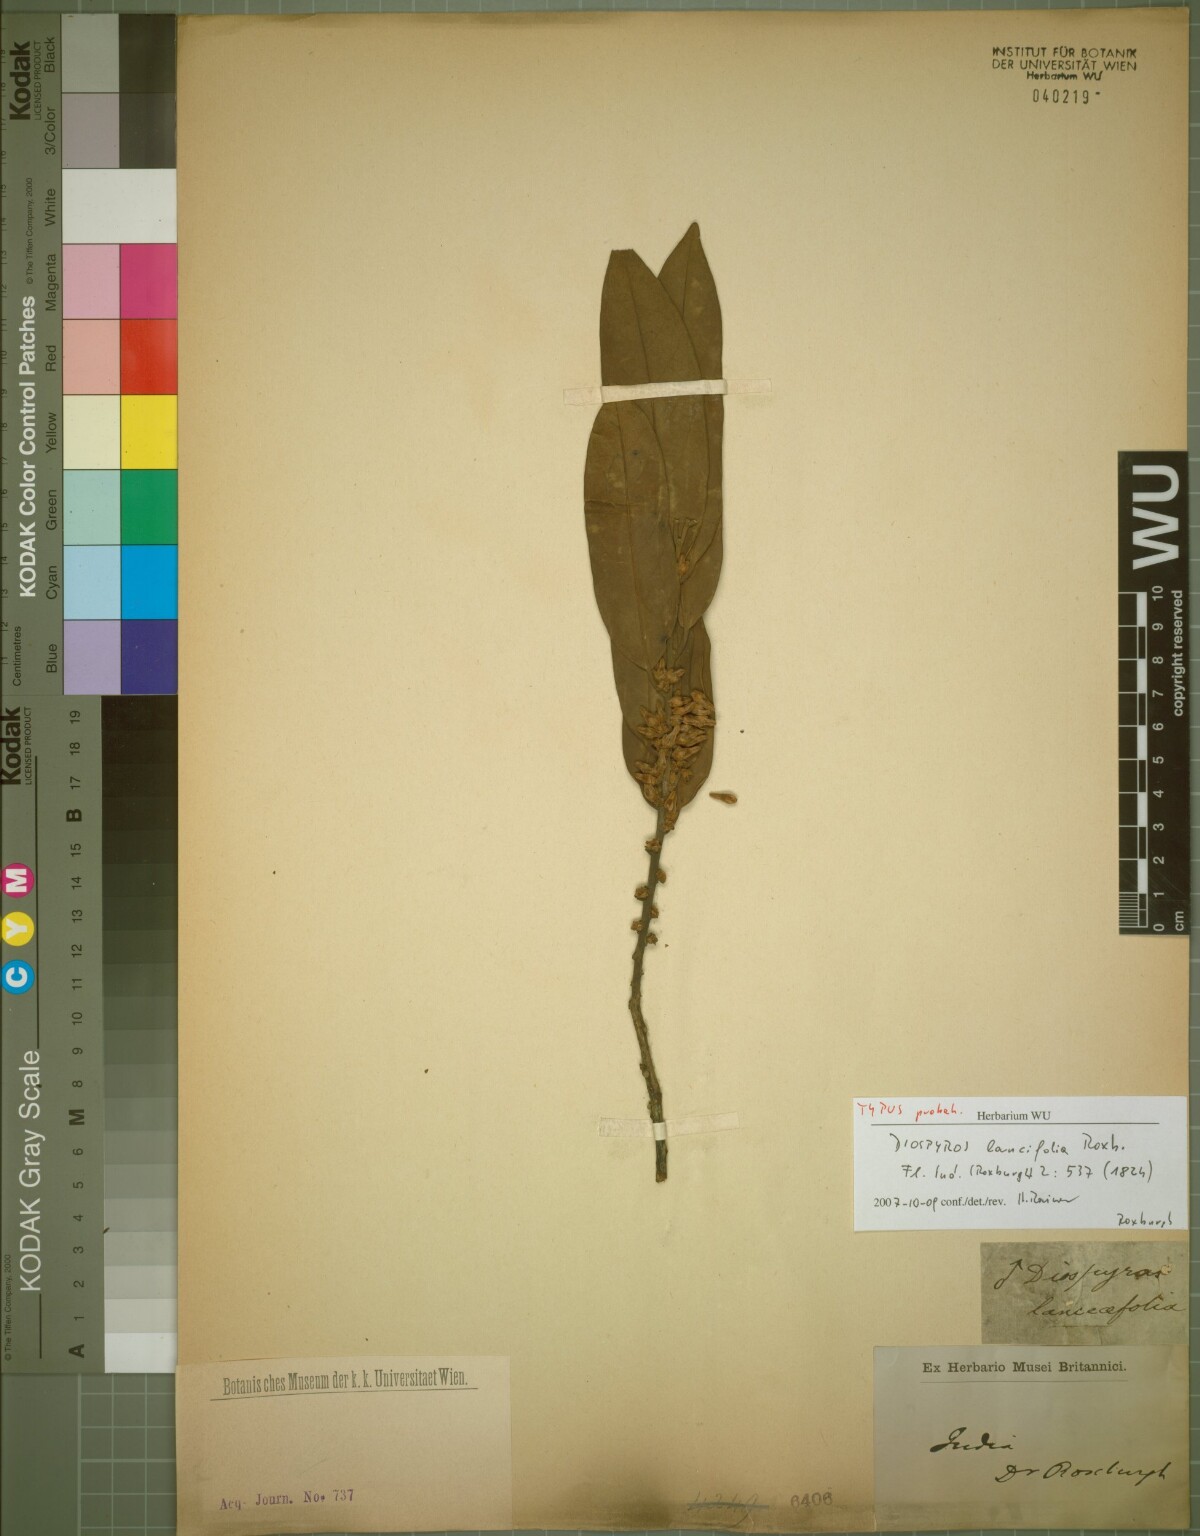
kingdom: Plantae
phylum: Tracheophyta
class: Magnoliopsida
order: Ericales
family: Ebenaceae
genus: Diospyros
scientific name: Diospyros lanceifolia
